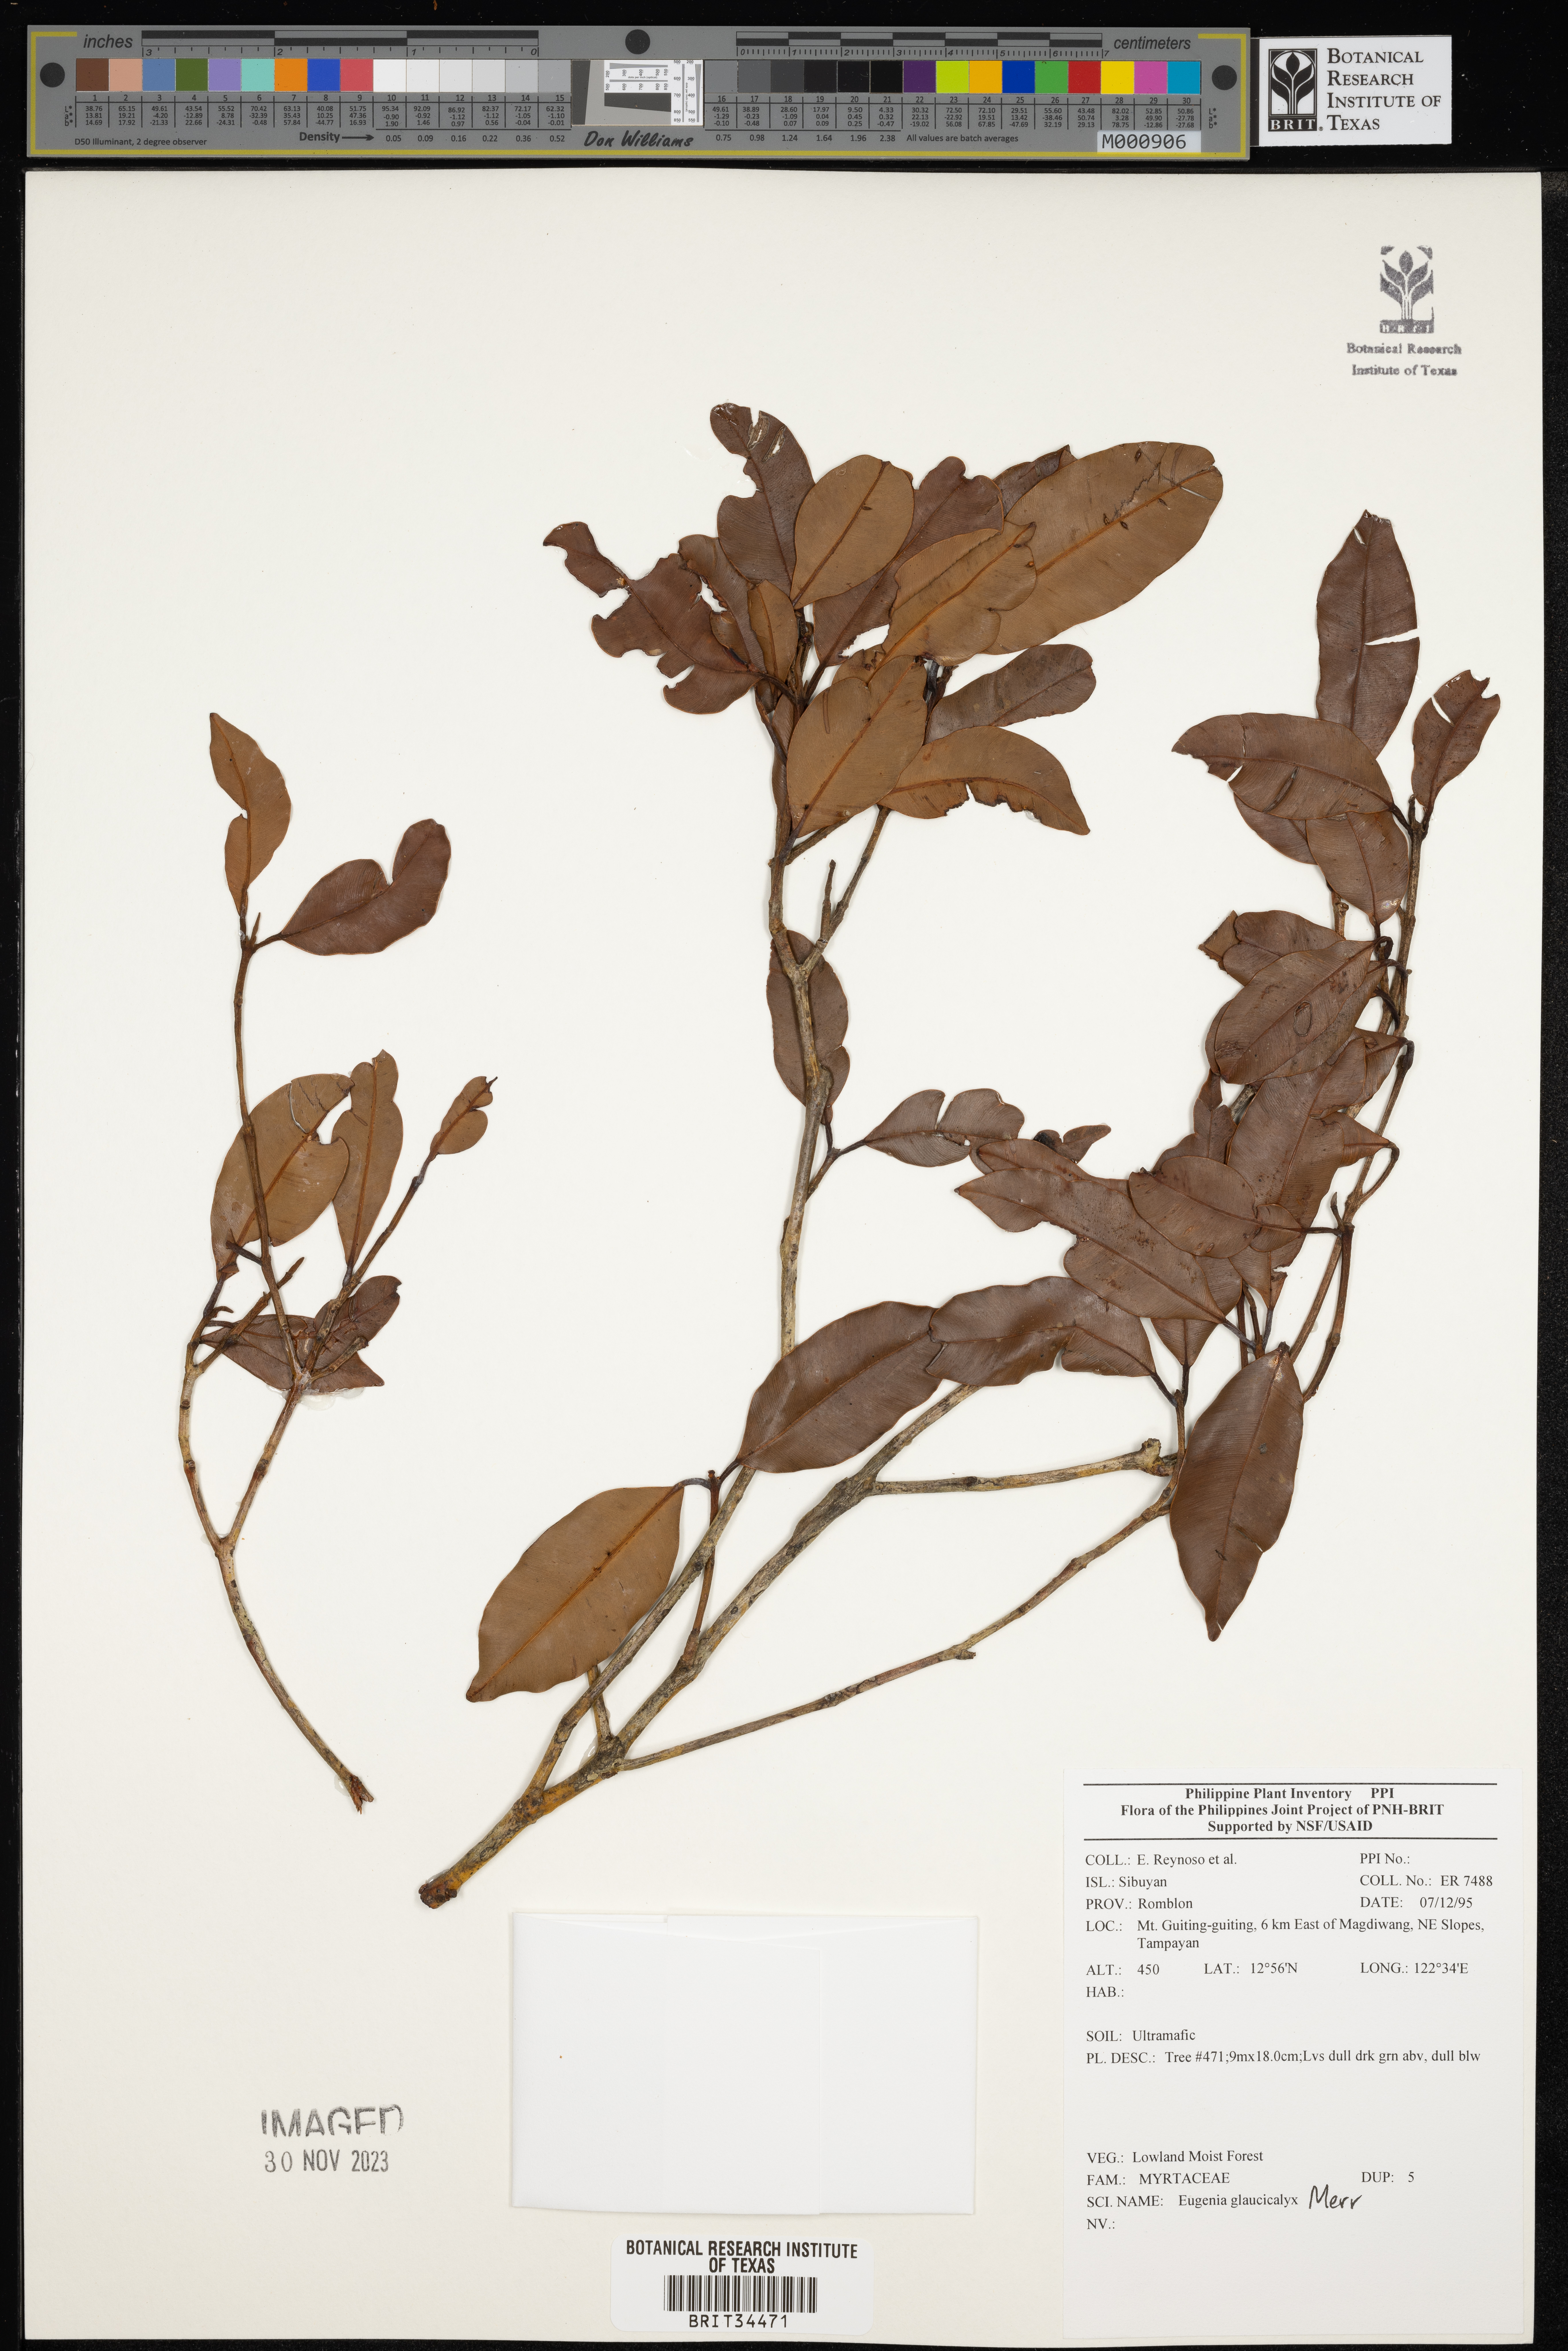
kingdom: Plantae
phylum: Tracheophyta
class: Magnoliopsida
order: Myrtales
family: Myrtaceae
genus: Eugenia
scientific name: Eugenia
